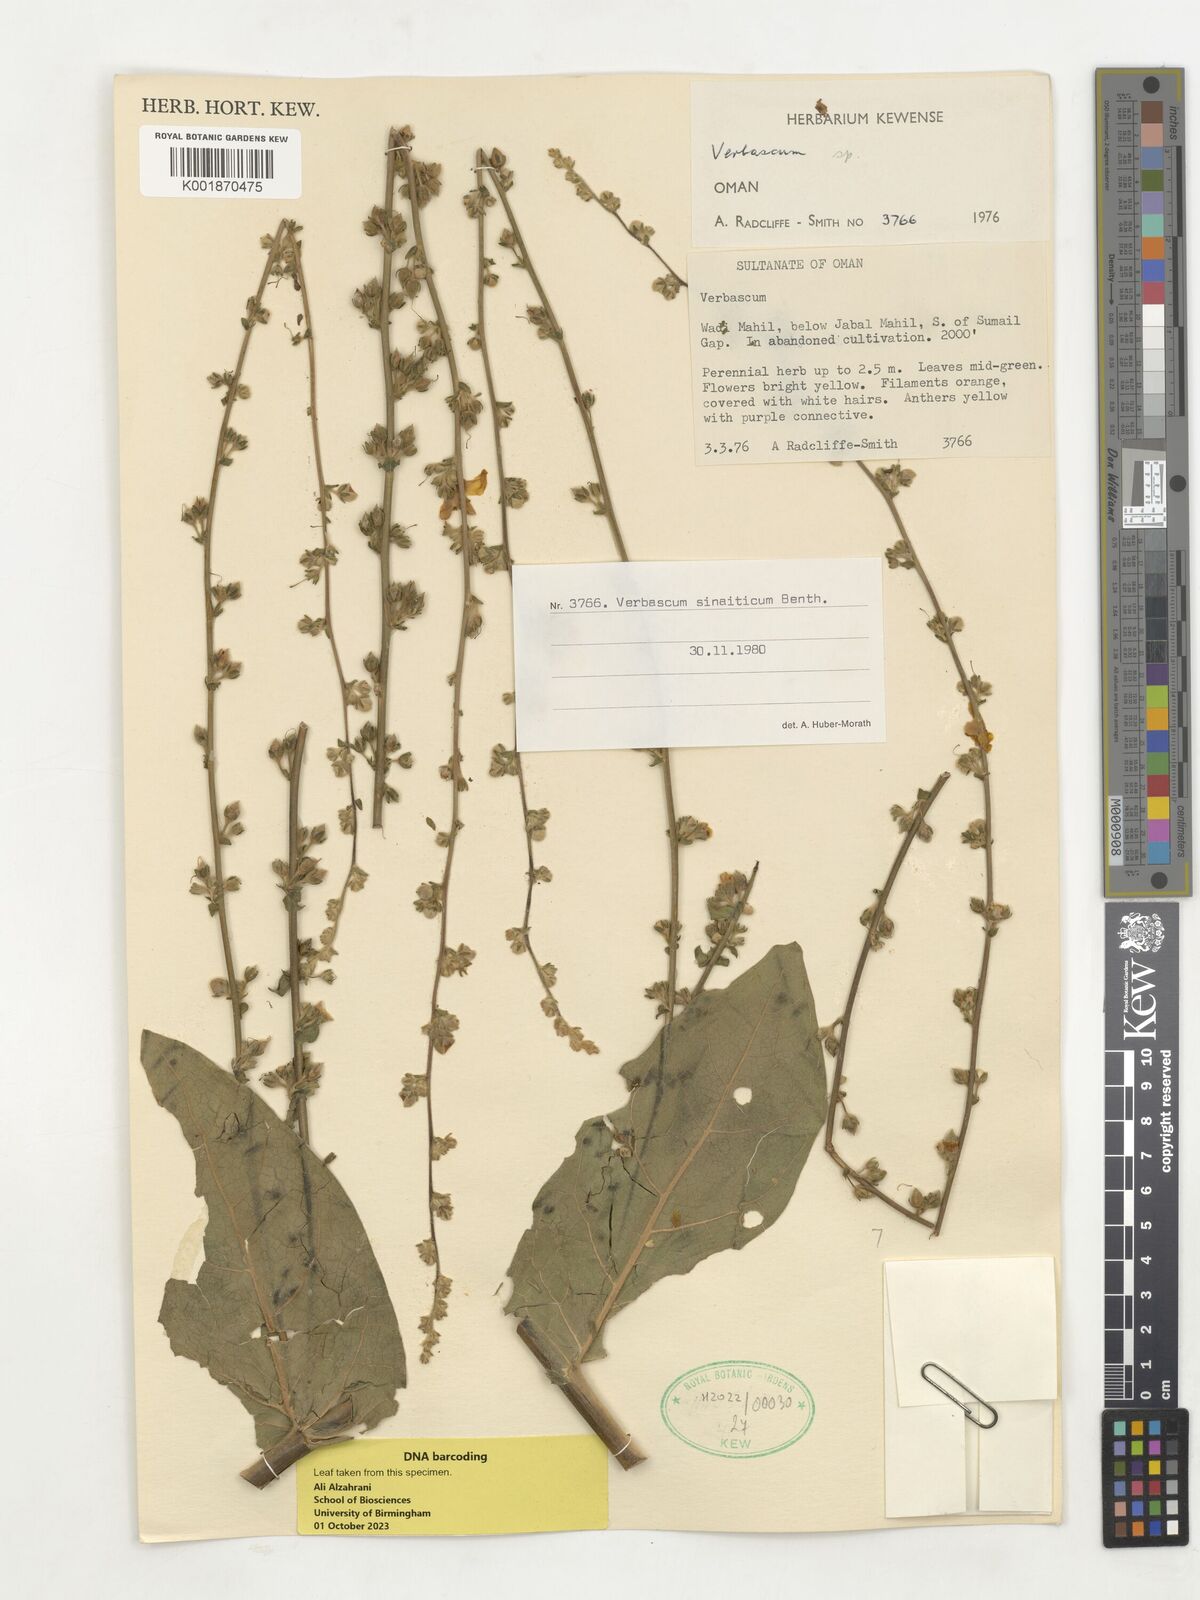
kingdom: Plantae
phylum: Tracheophyta
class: Magnoliopsida
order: Lamiales
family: Scrophulariaceae
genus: Verbascum
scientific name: Verbascum sinaiticum
